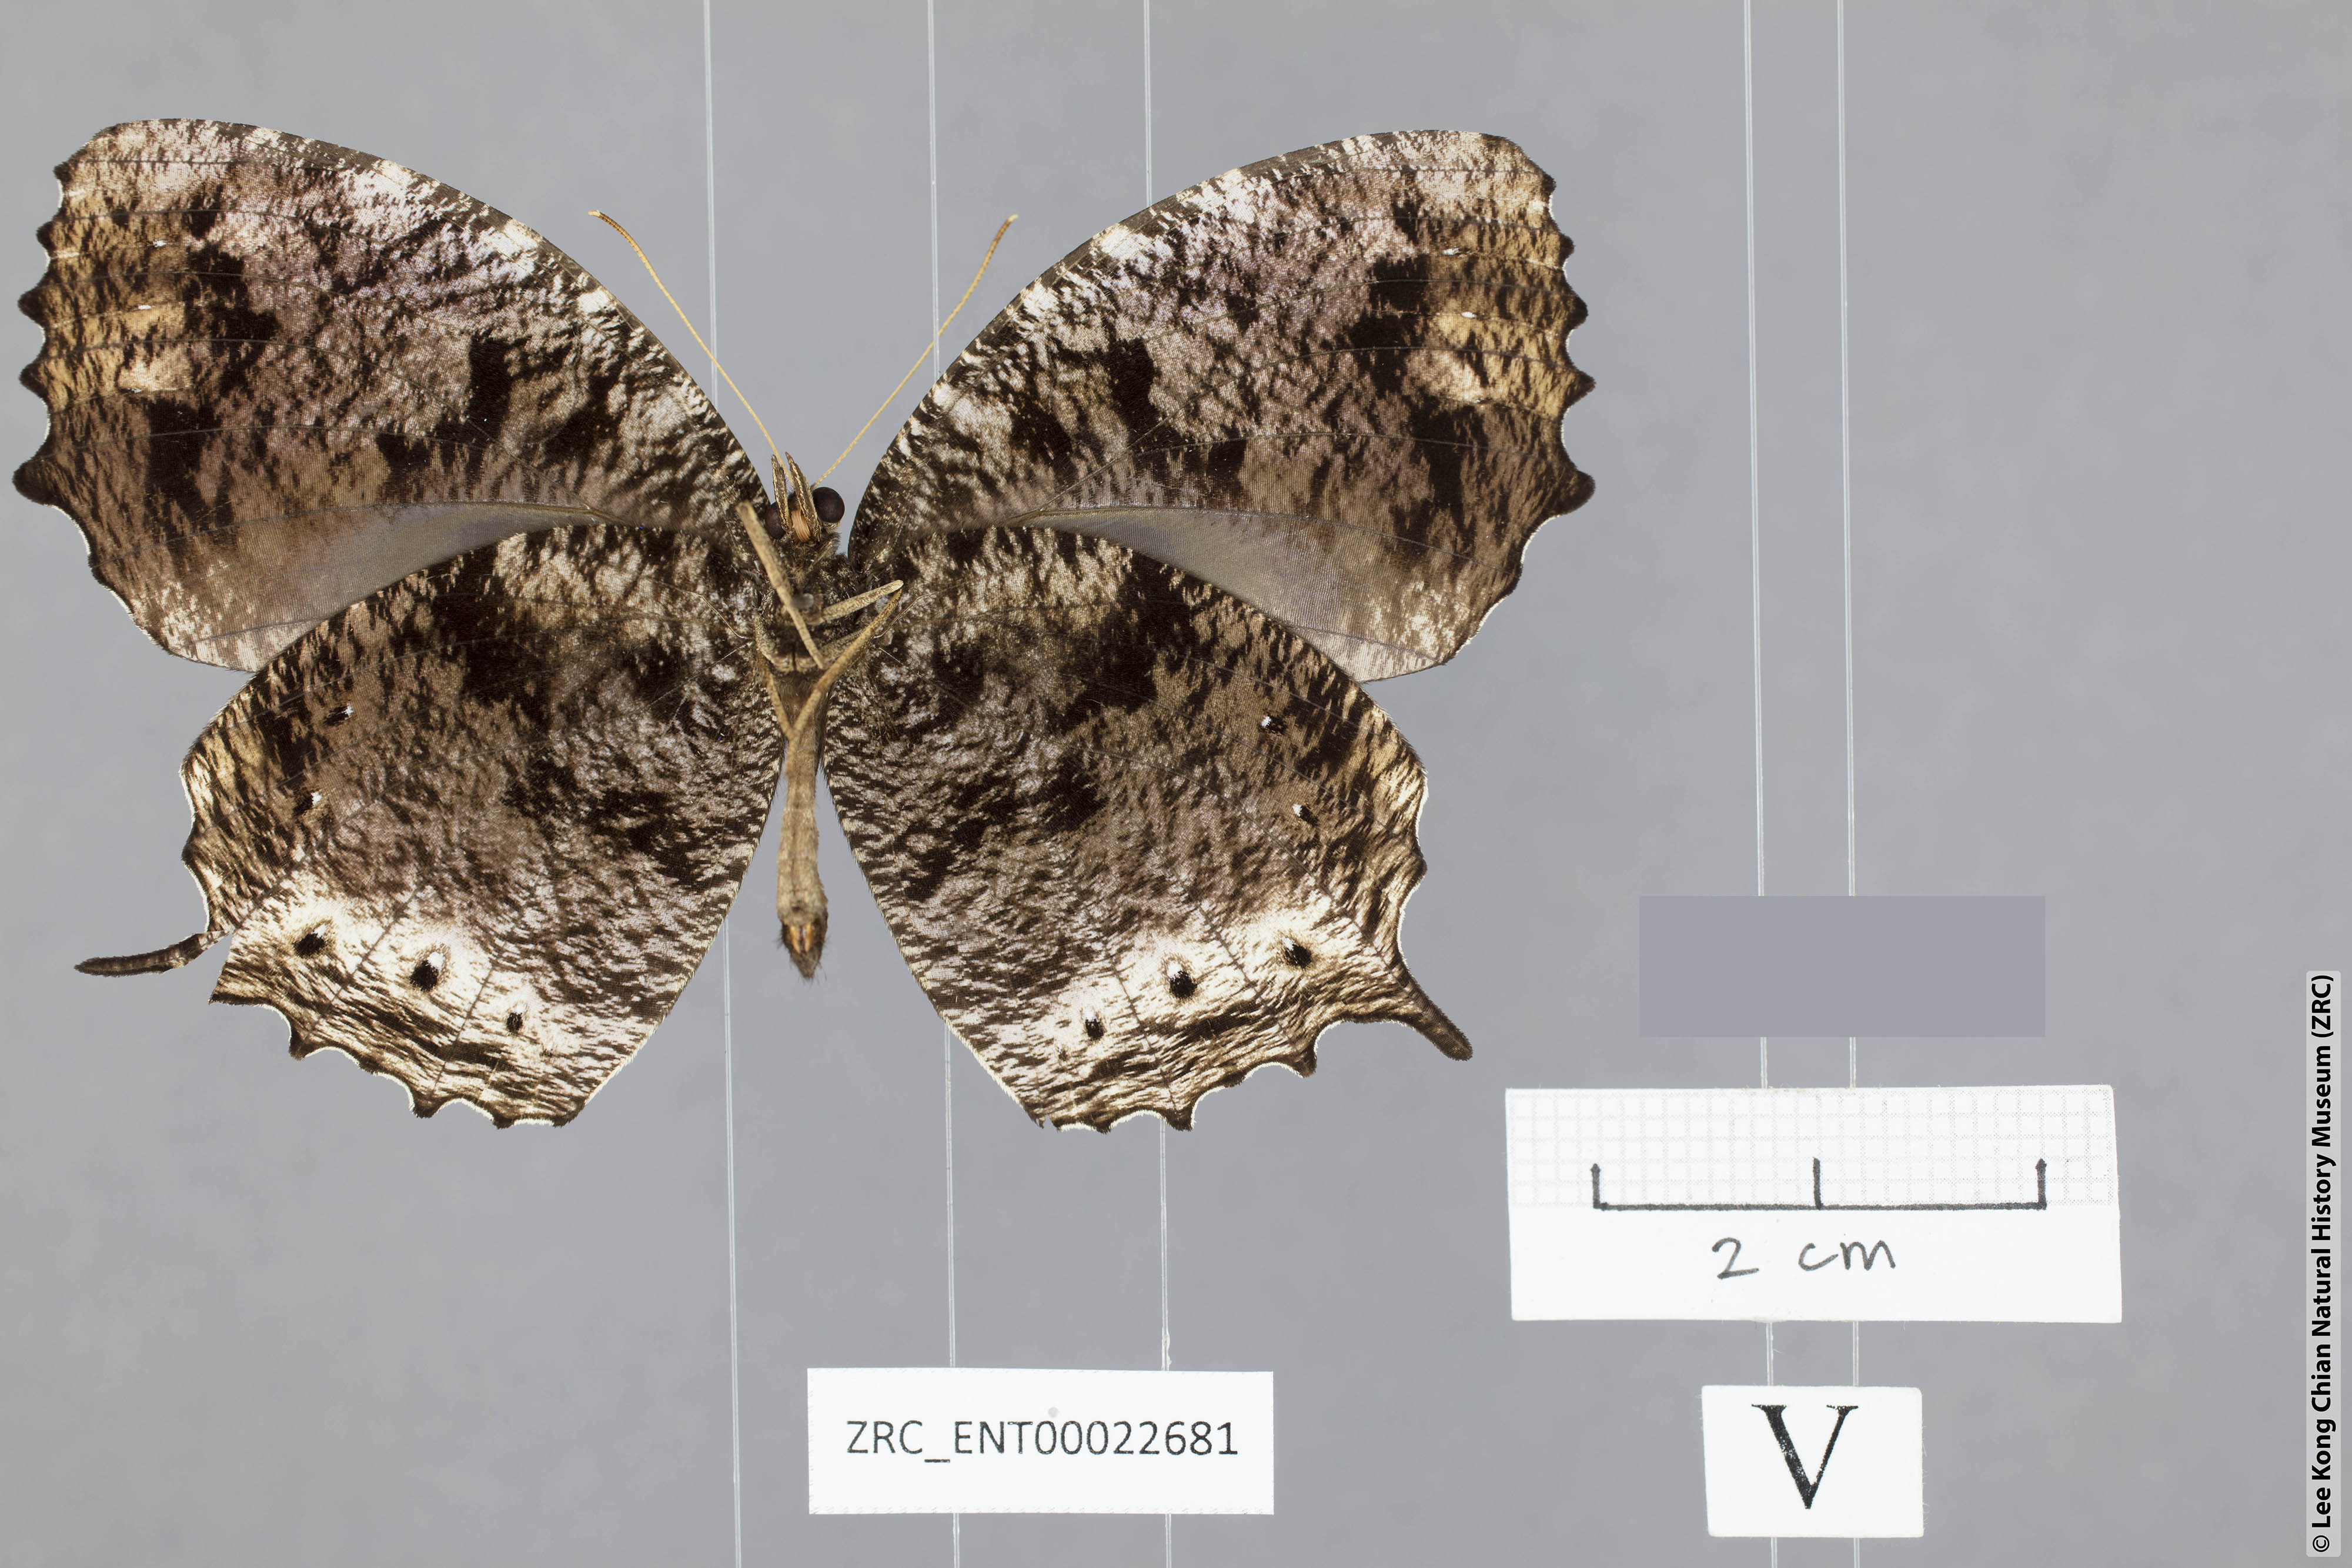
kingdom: Animalia
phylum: Arthropoda
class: Insecta
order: Lepidoptera
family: Nymphalidae
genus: Elymnias
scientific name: Elymnias harterti
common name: Black palmfly
